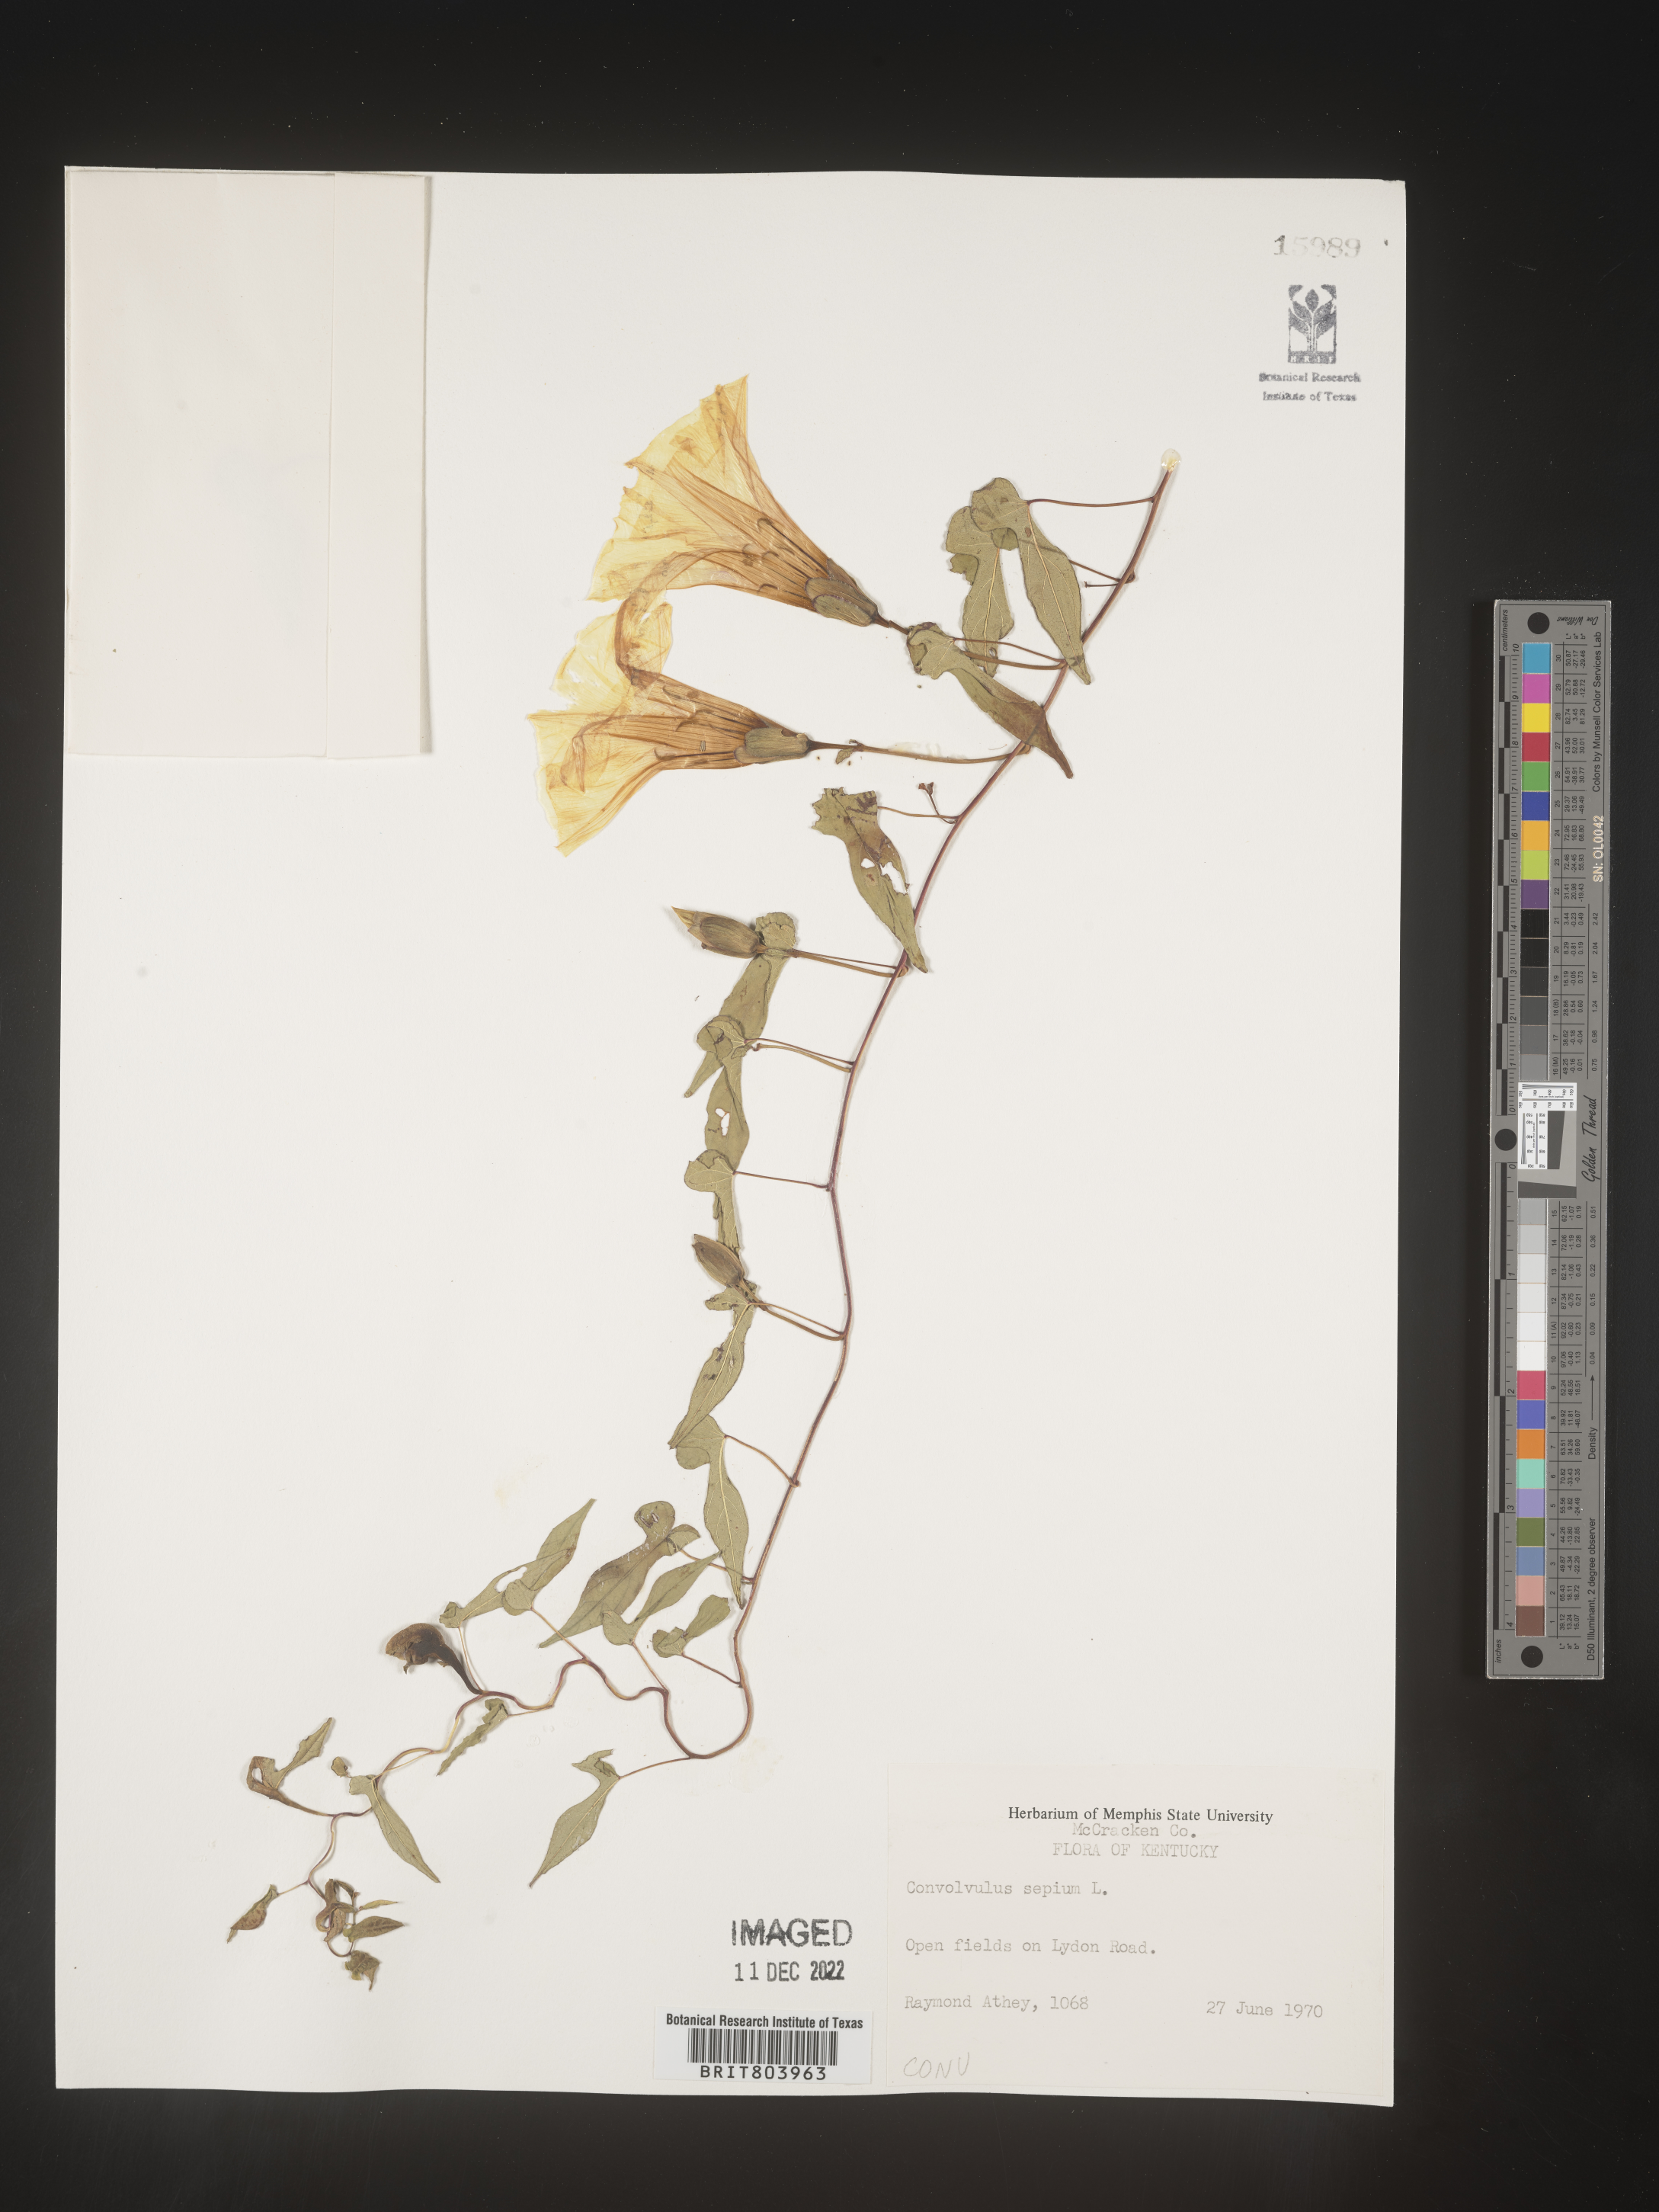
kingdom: Plantae
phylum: Tracheophyta
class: Magnoliopsida
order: Solanales
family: Convolvulaceae
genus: Calystegia
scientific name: Calystegia sepium
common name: Hedge bindweed
